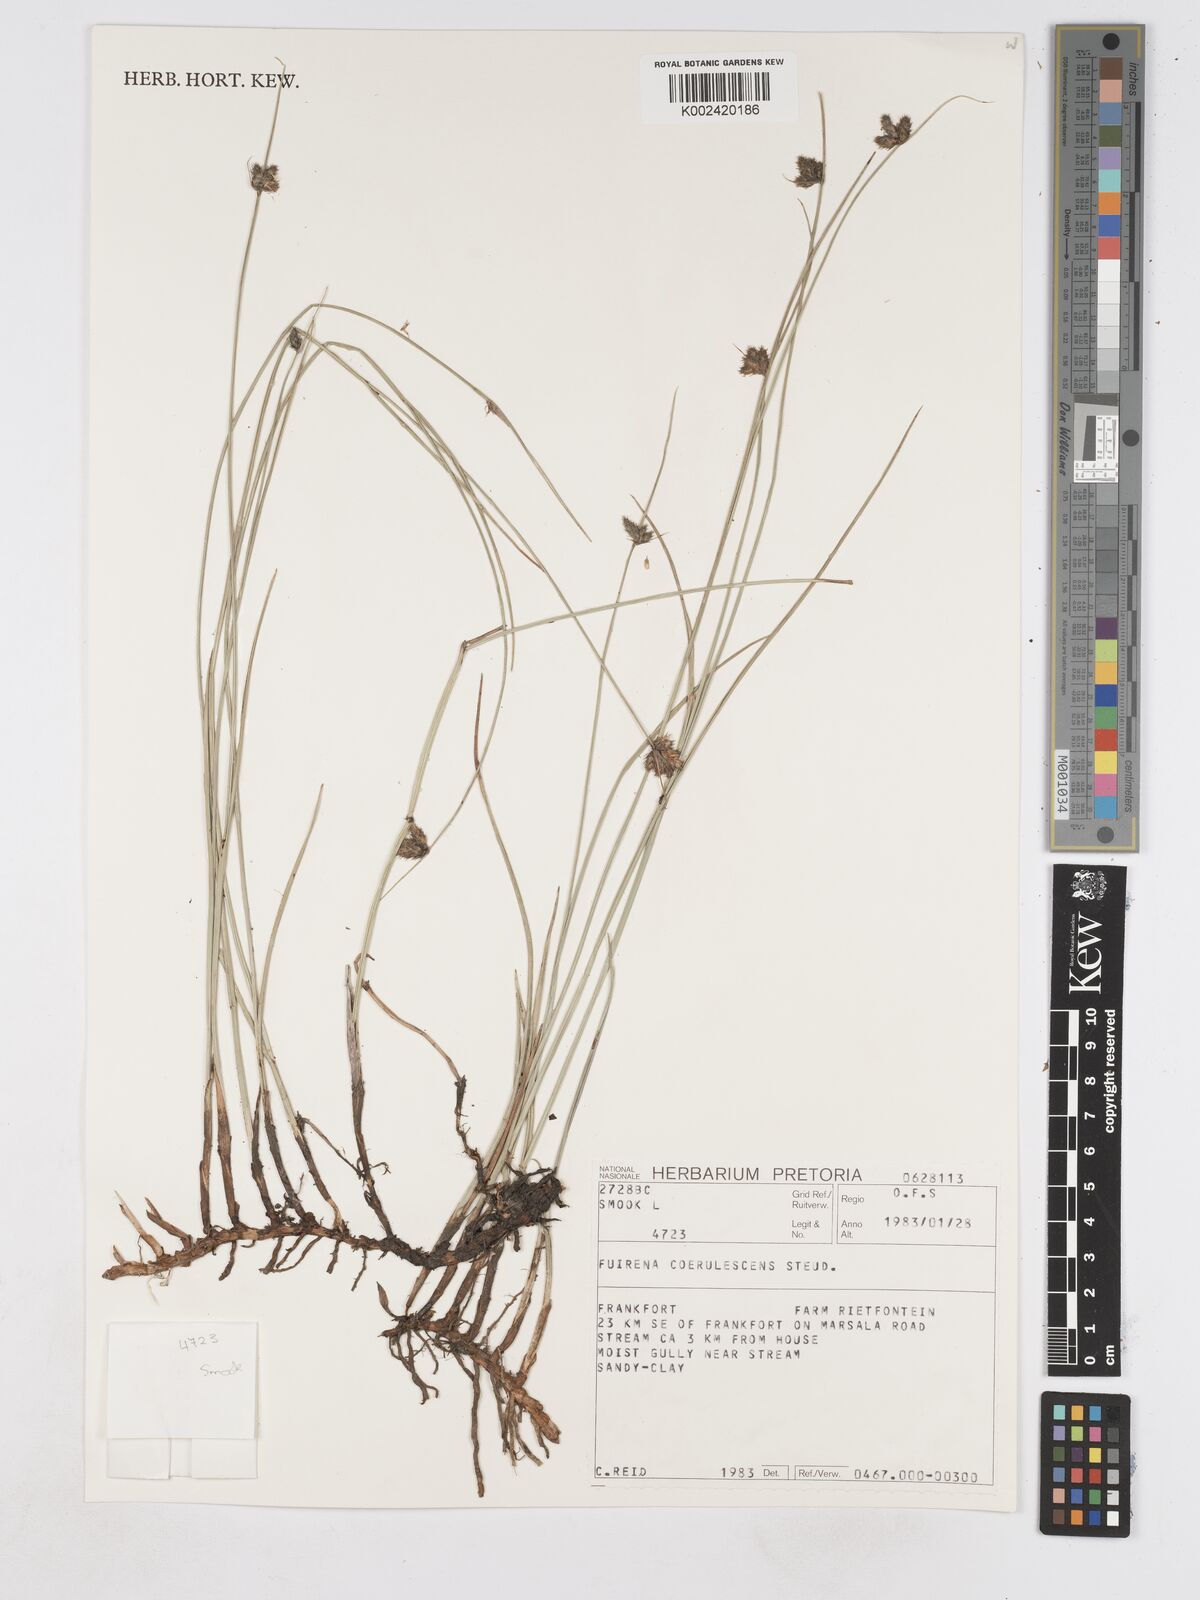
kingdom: Plantae
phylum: Tracheophyta
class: Liliopsida
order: Poales
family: Cyperaceae
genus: Fuirena
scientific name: Fuirena coerulescens
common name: Blue umbrella-sedge
